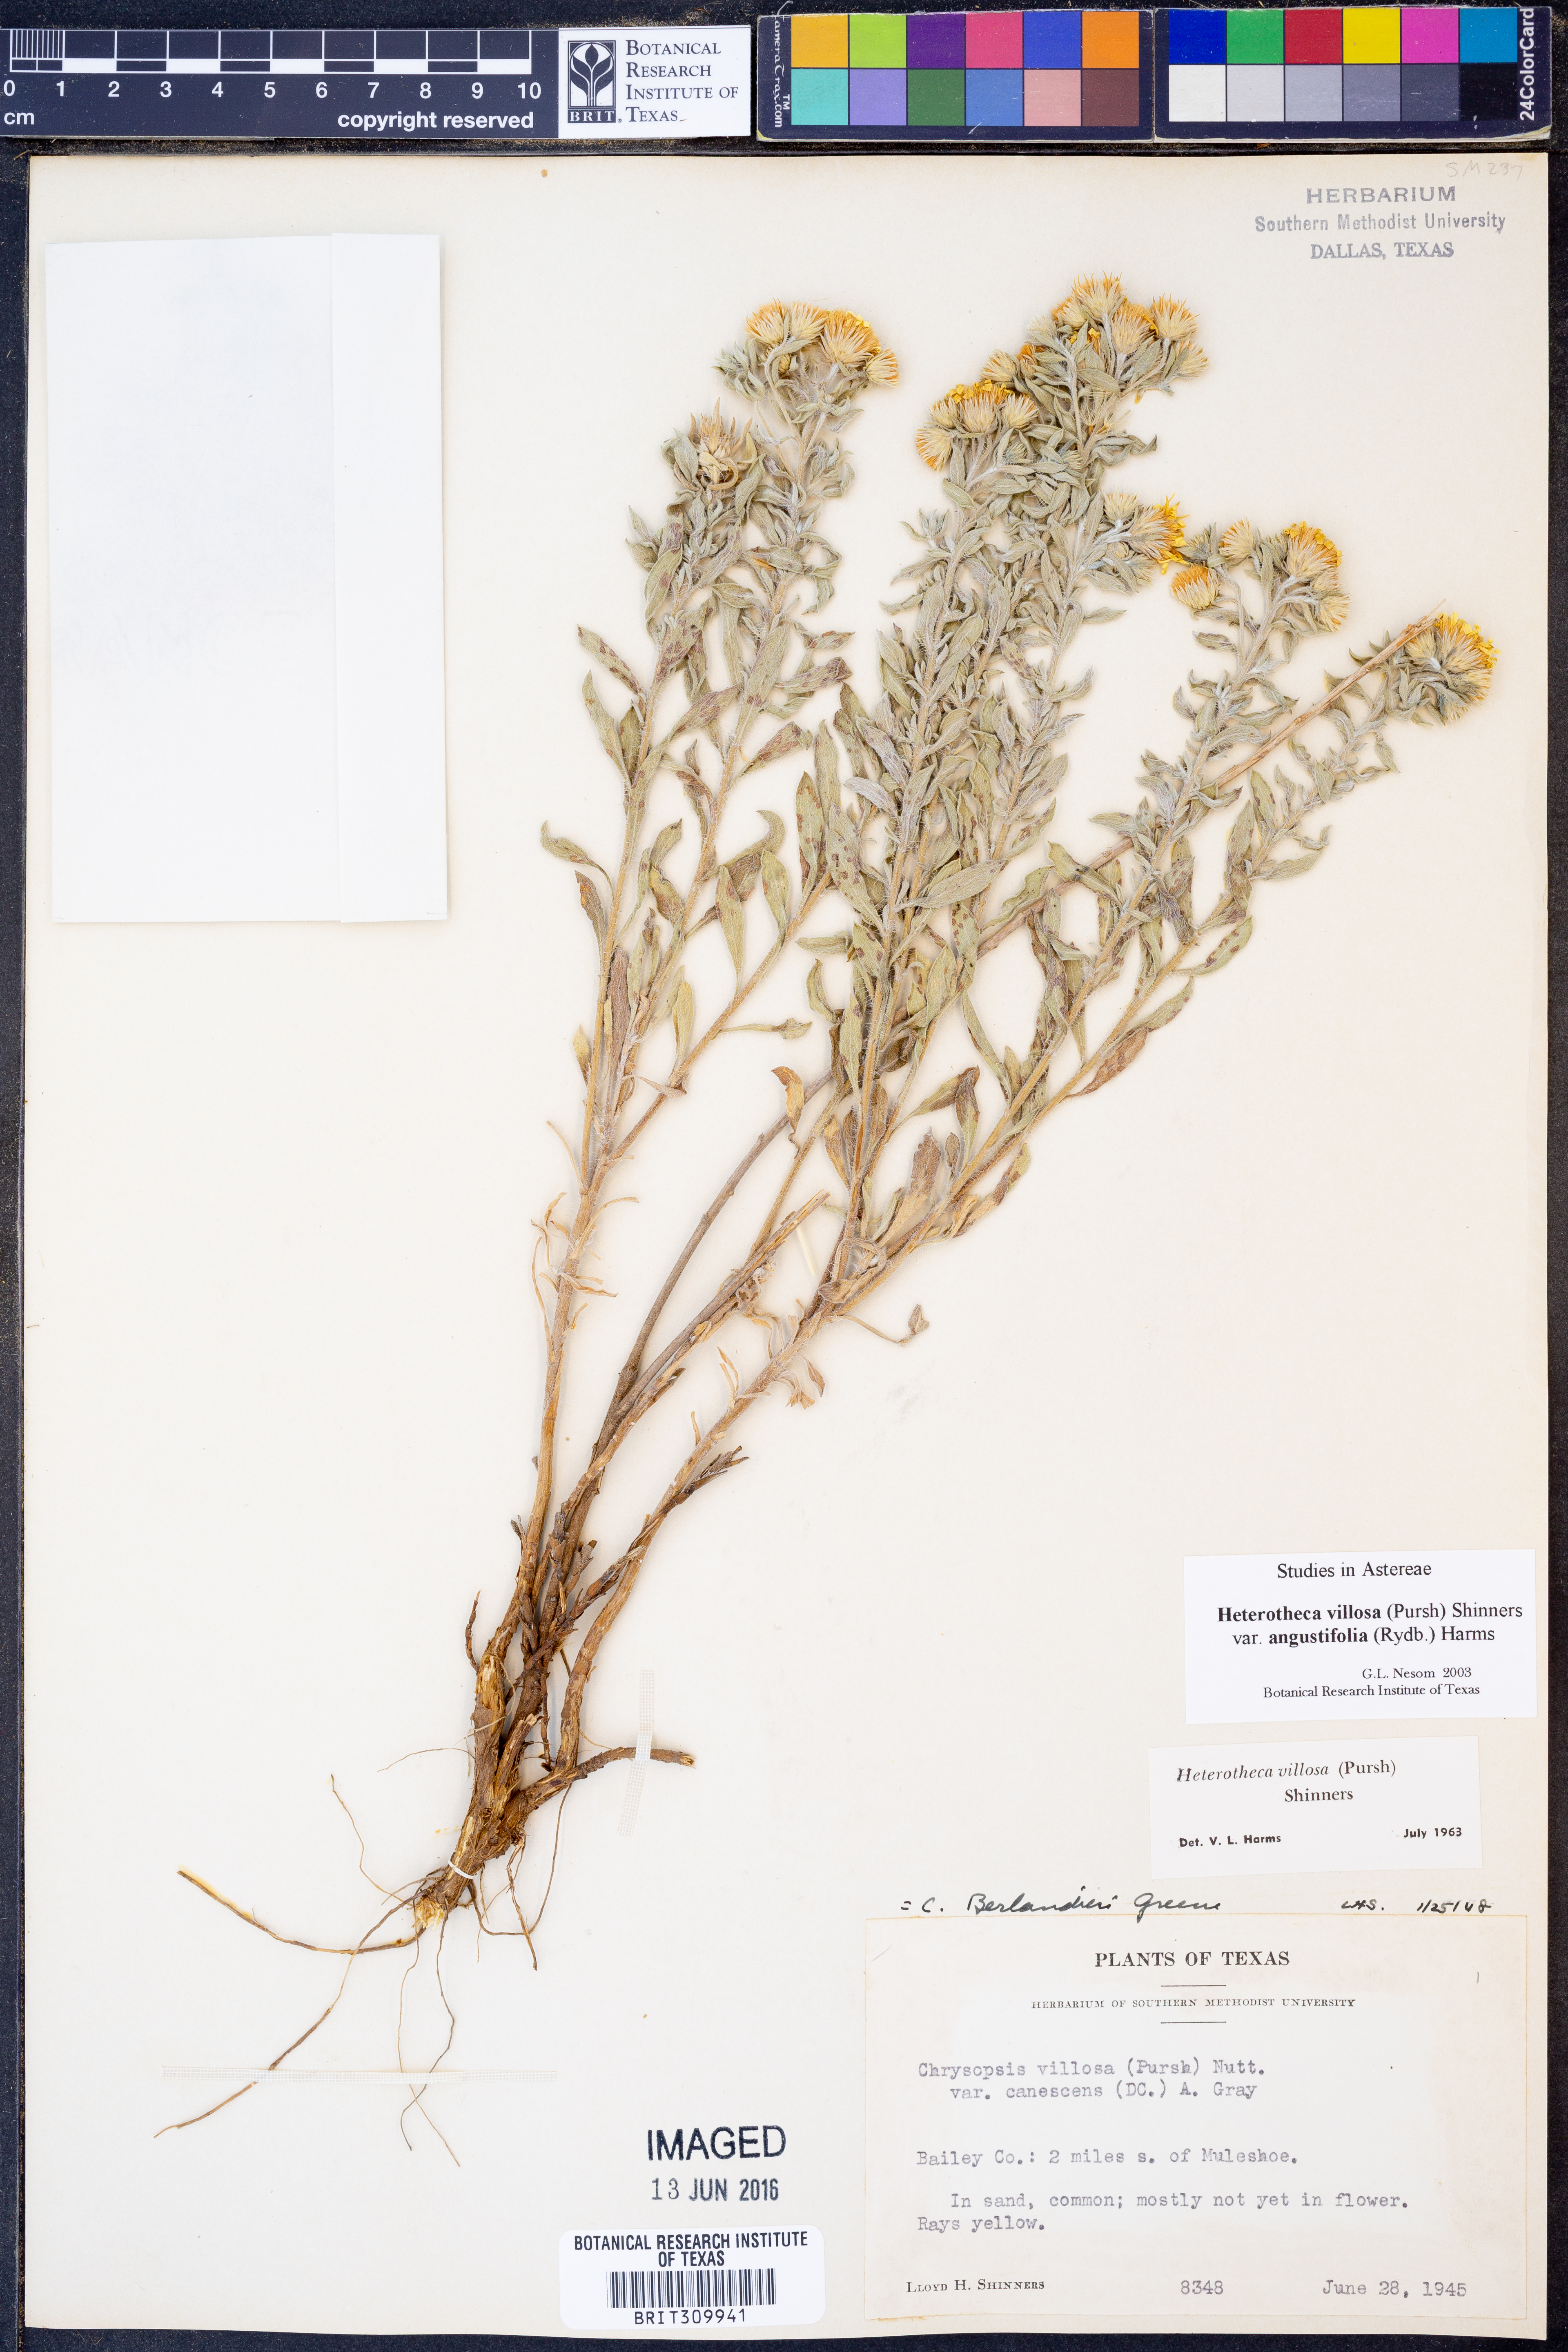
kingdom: Plantae
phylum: Tracheophyta
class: Magnoliopsida
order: Asterales
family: Asteraceae
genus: Heterotheca
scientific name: Heterotheca angustifolia
